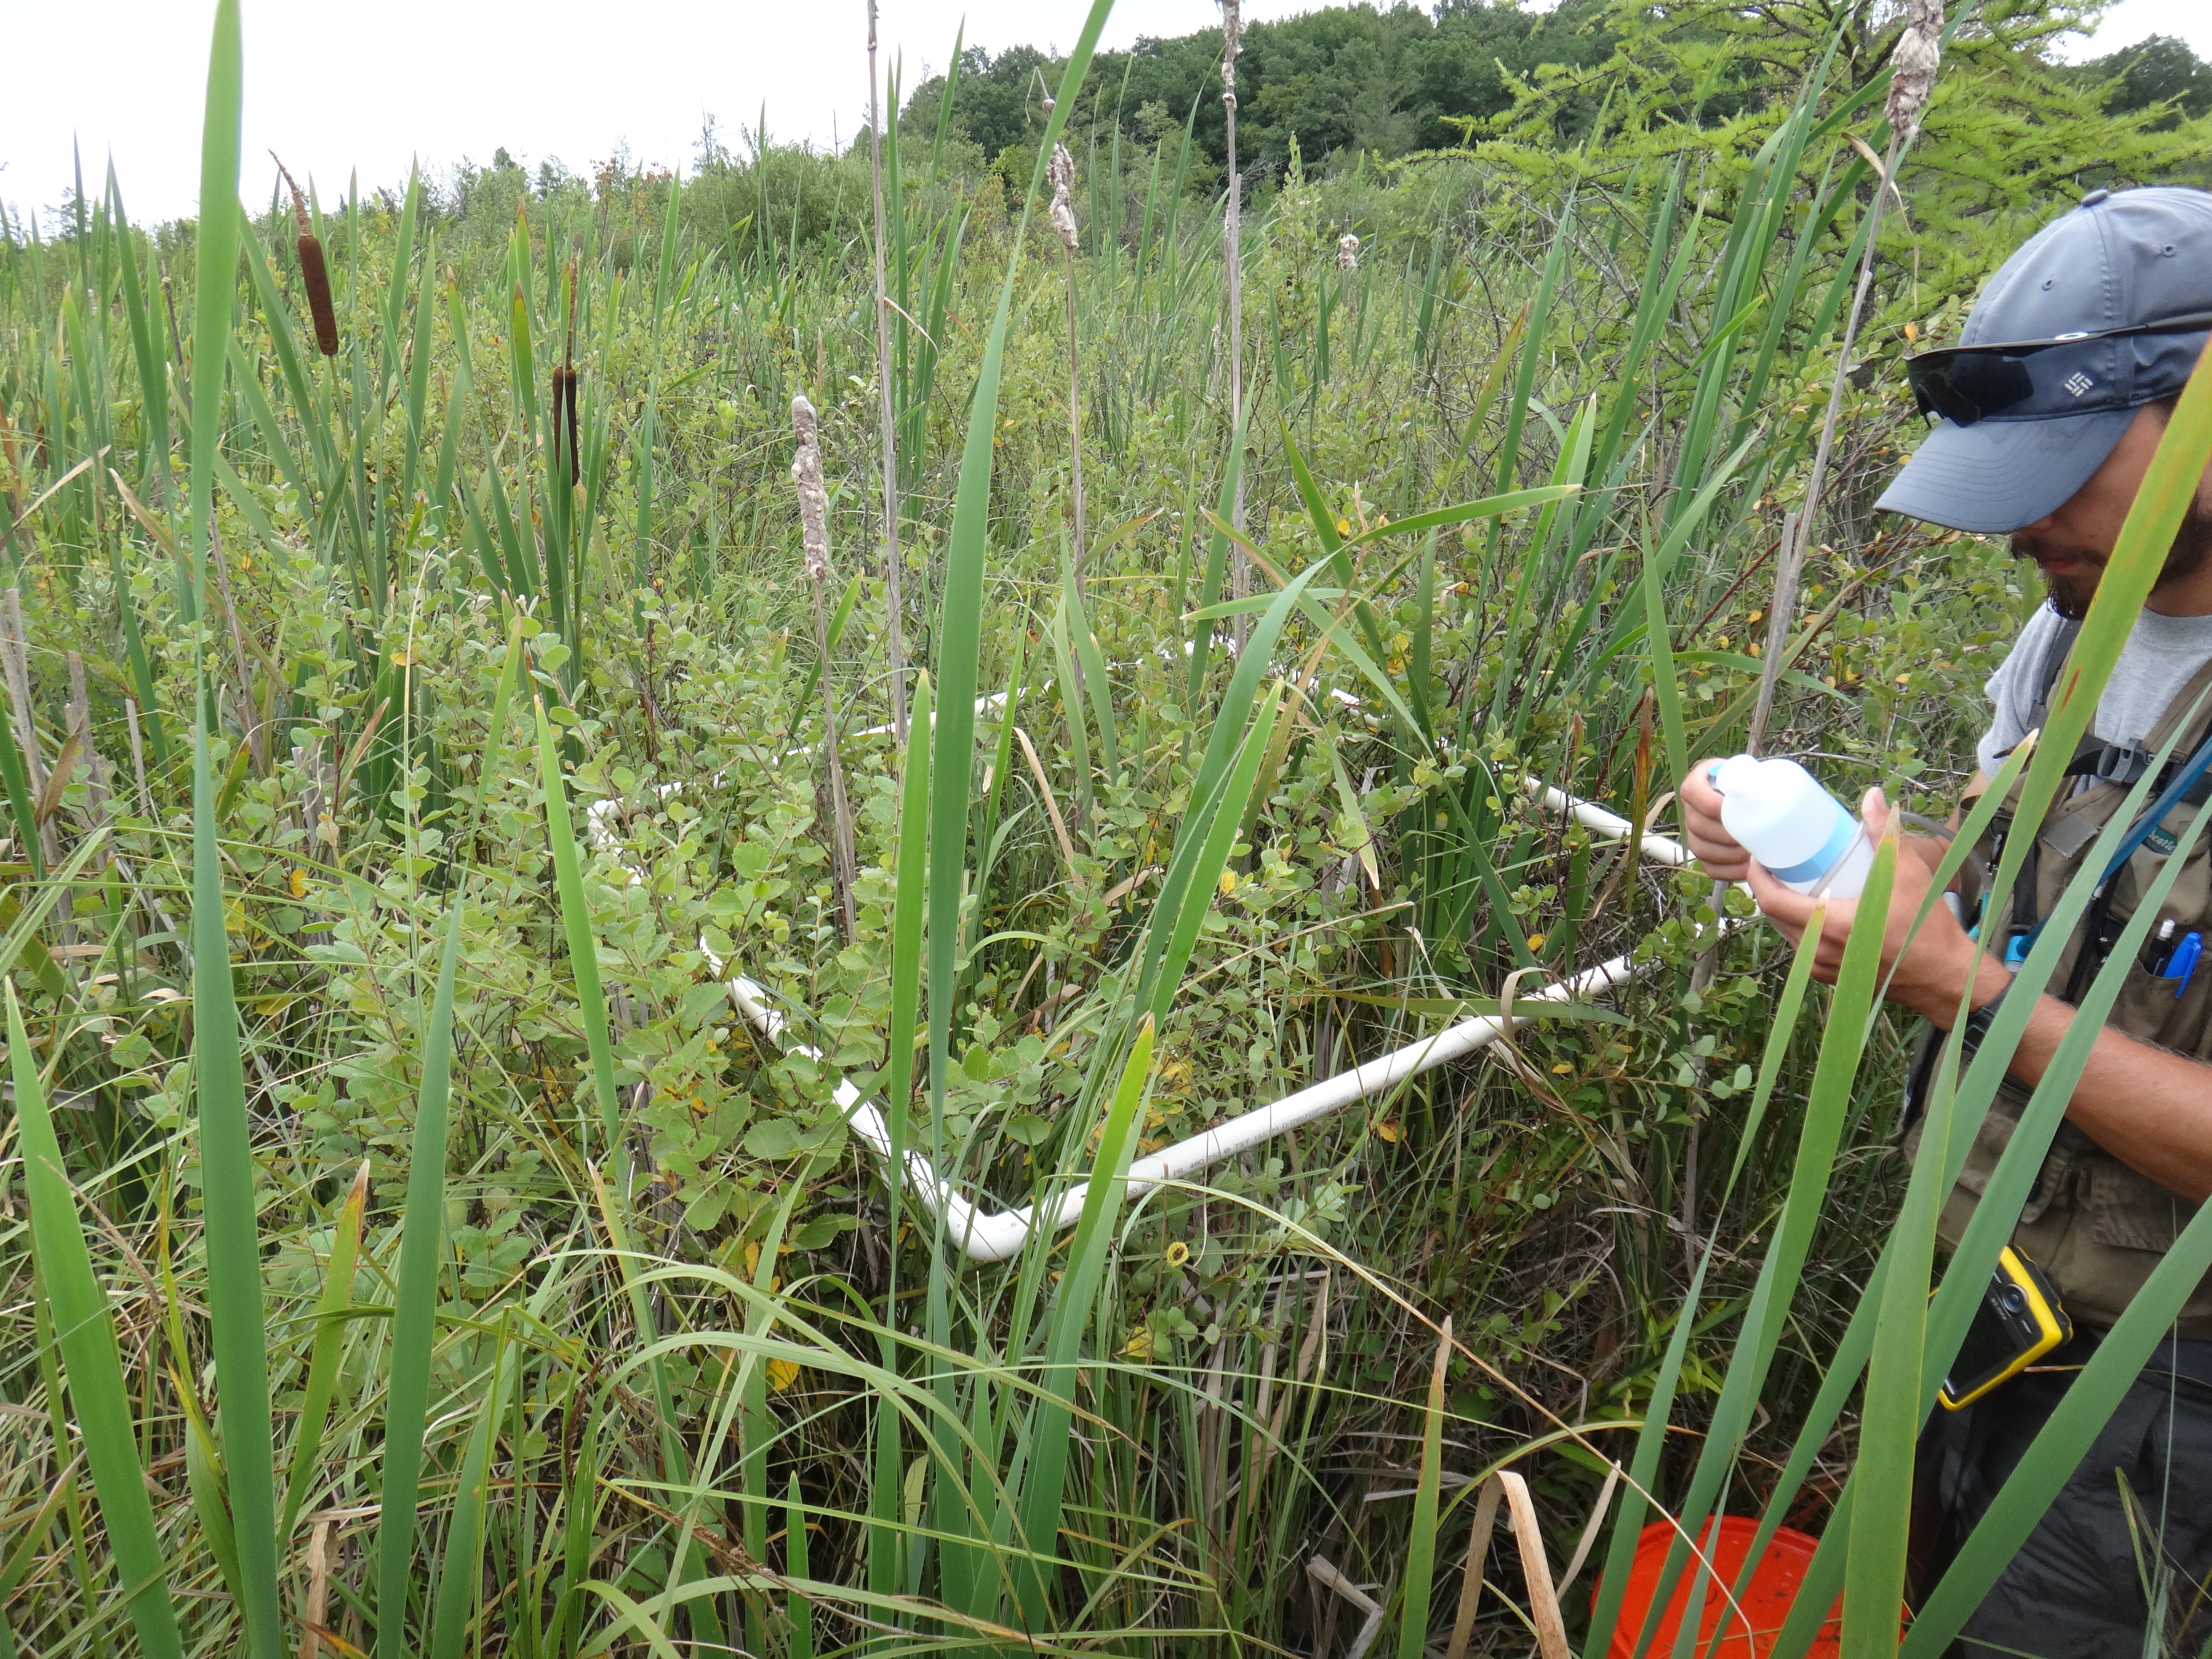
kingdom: Plantae
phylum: Tracheophyta
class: Liliopsida
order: Poales
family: Cyperaceae
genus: Carex
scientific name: Carex aquatilis
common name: Water sedge
